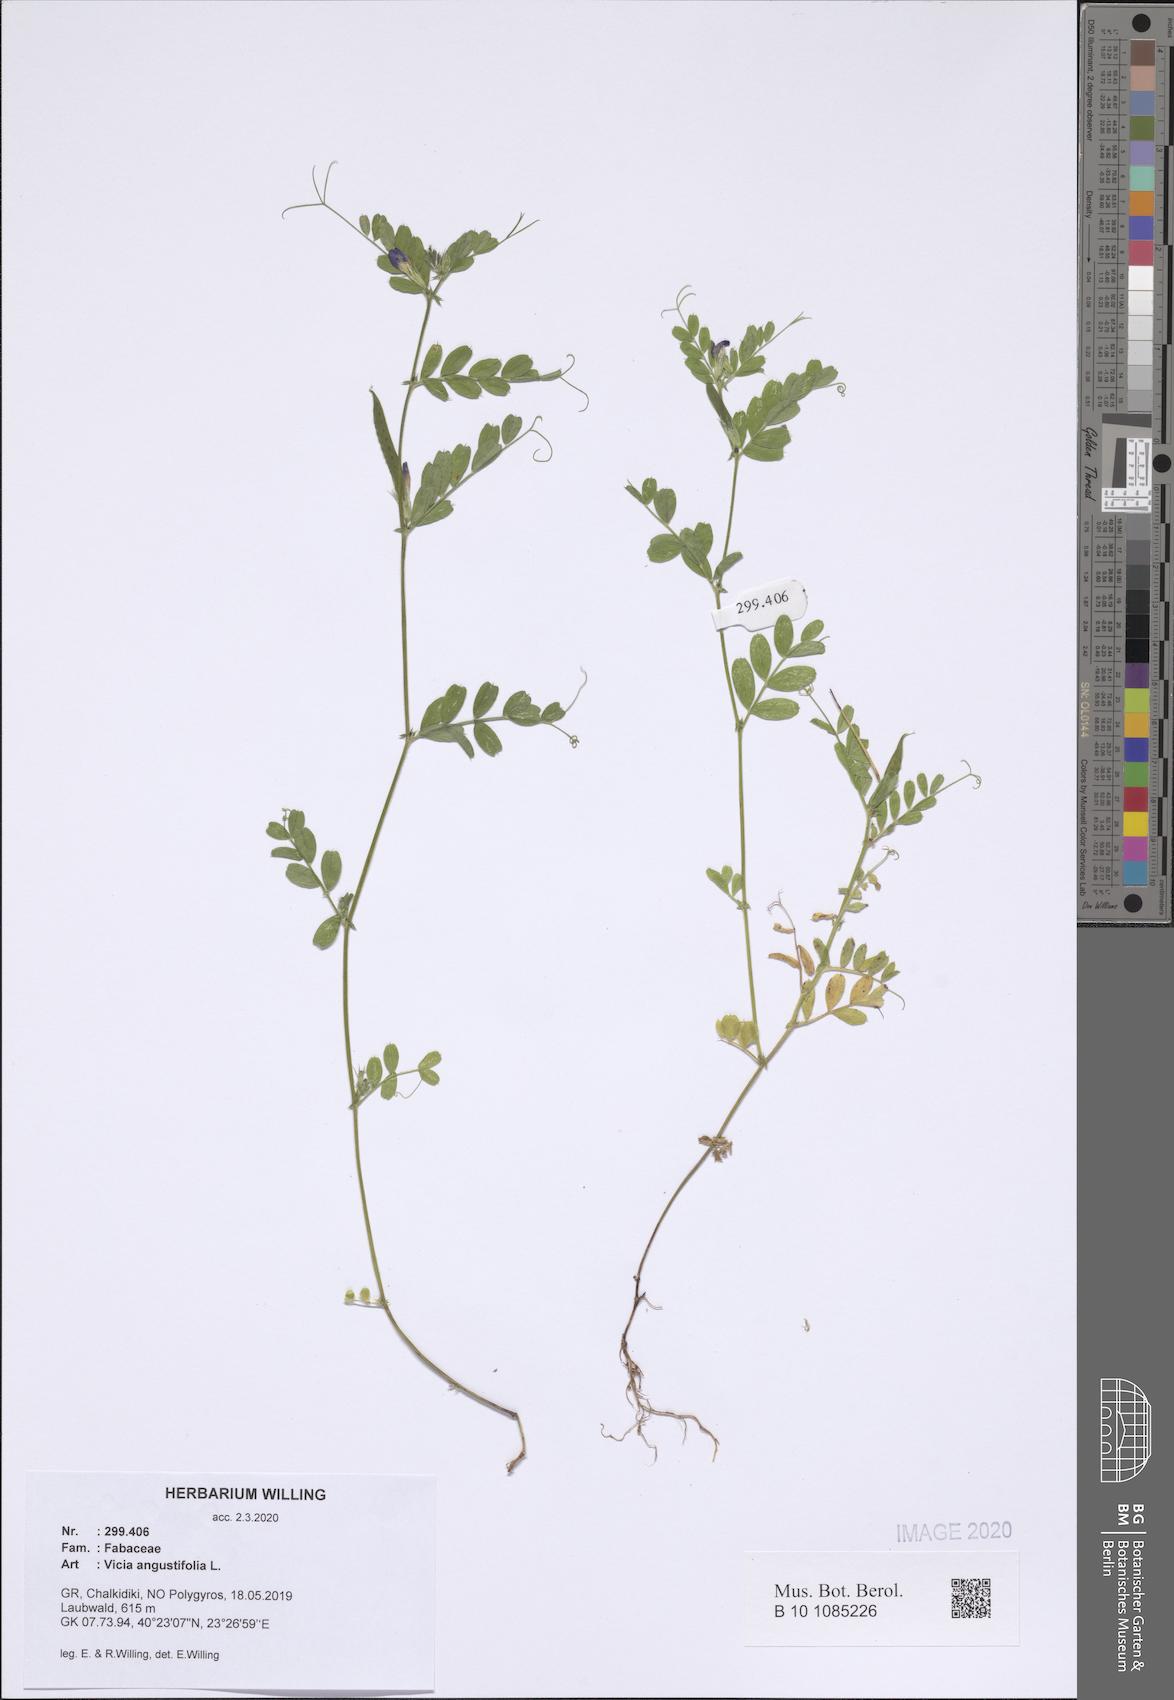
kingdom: Plantae
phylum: Tracheophyta
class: Magnoliopsida
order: Fabales
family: Fabaceae
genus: Vicia
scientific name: Vicia sativa
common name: Garden vetch
